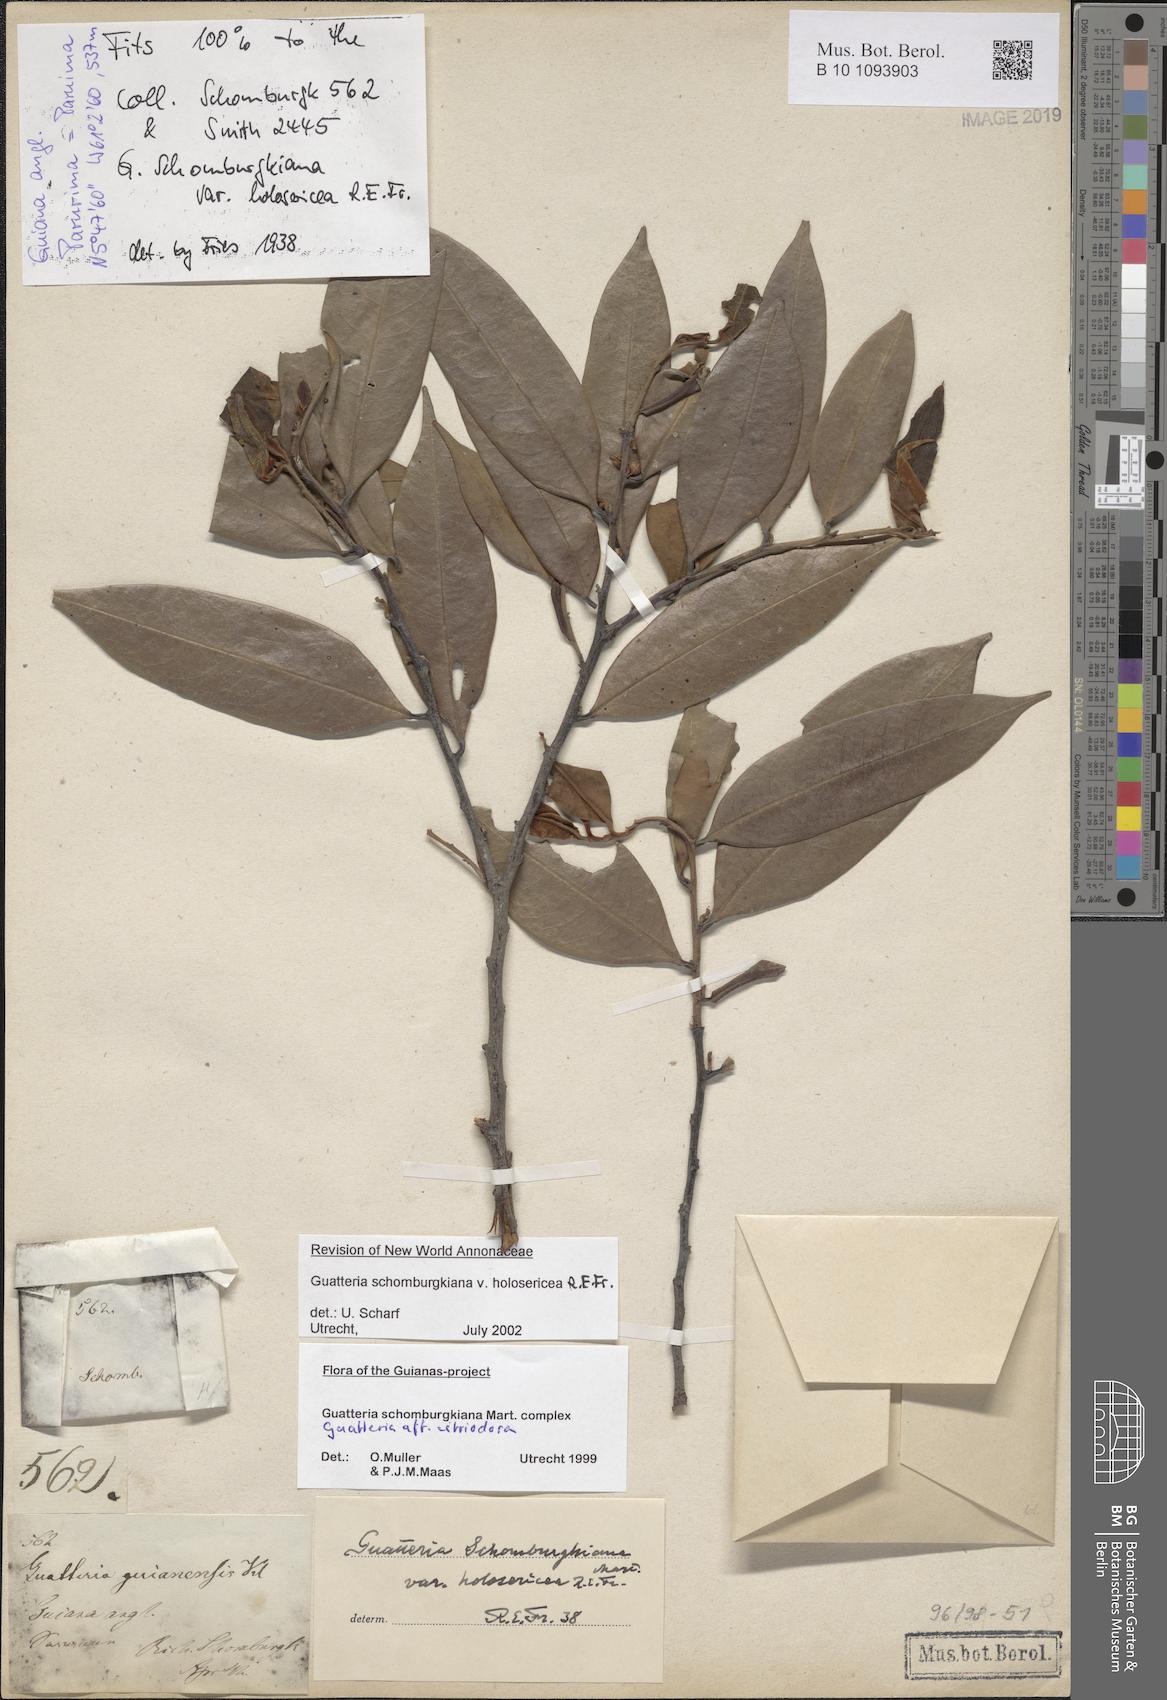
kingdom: Plantae
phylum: Tracheophyta
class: Magnoliopsida
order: Magnoliales
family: Annonaceae
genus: Guatteria
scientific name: Guatteria schomburgkiana
